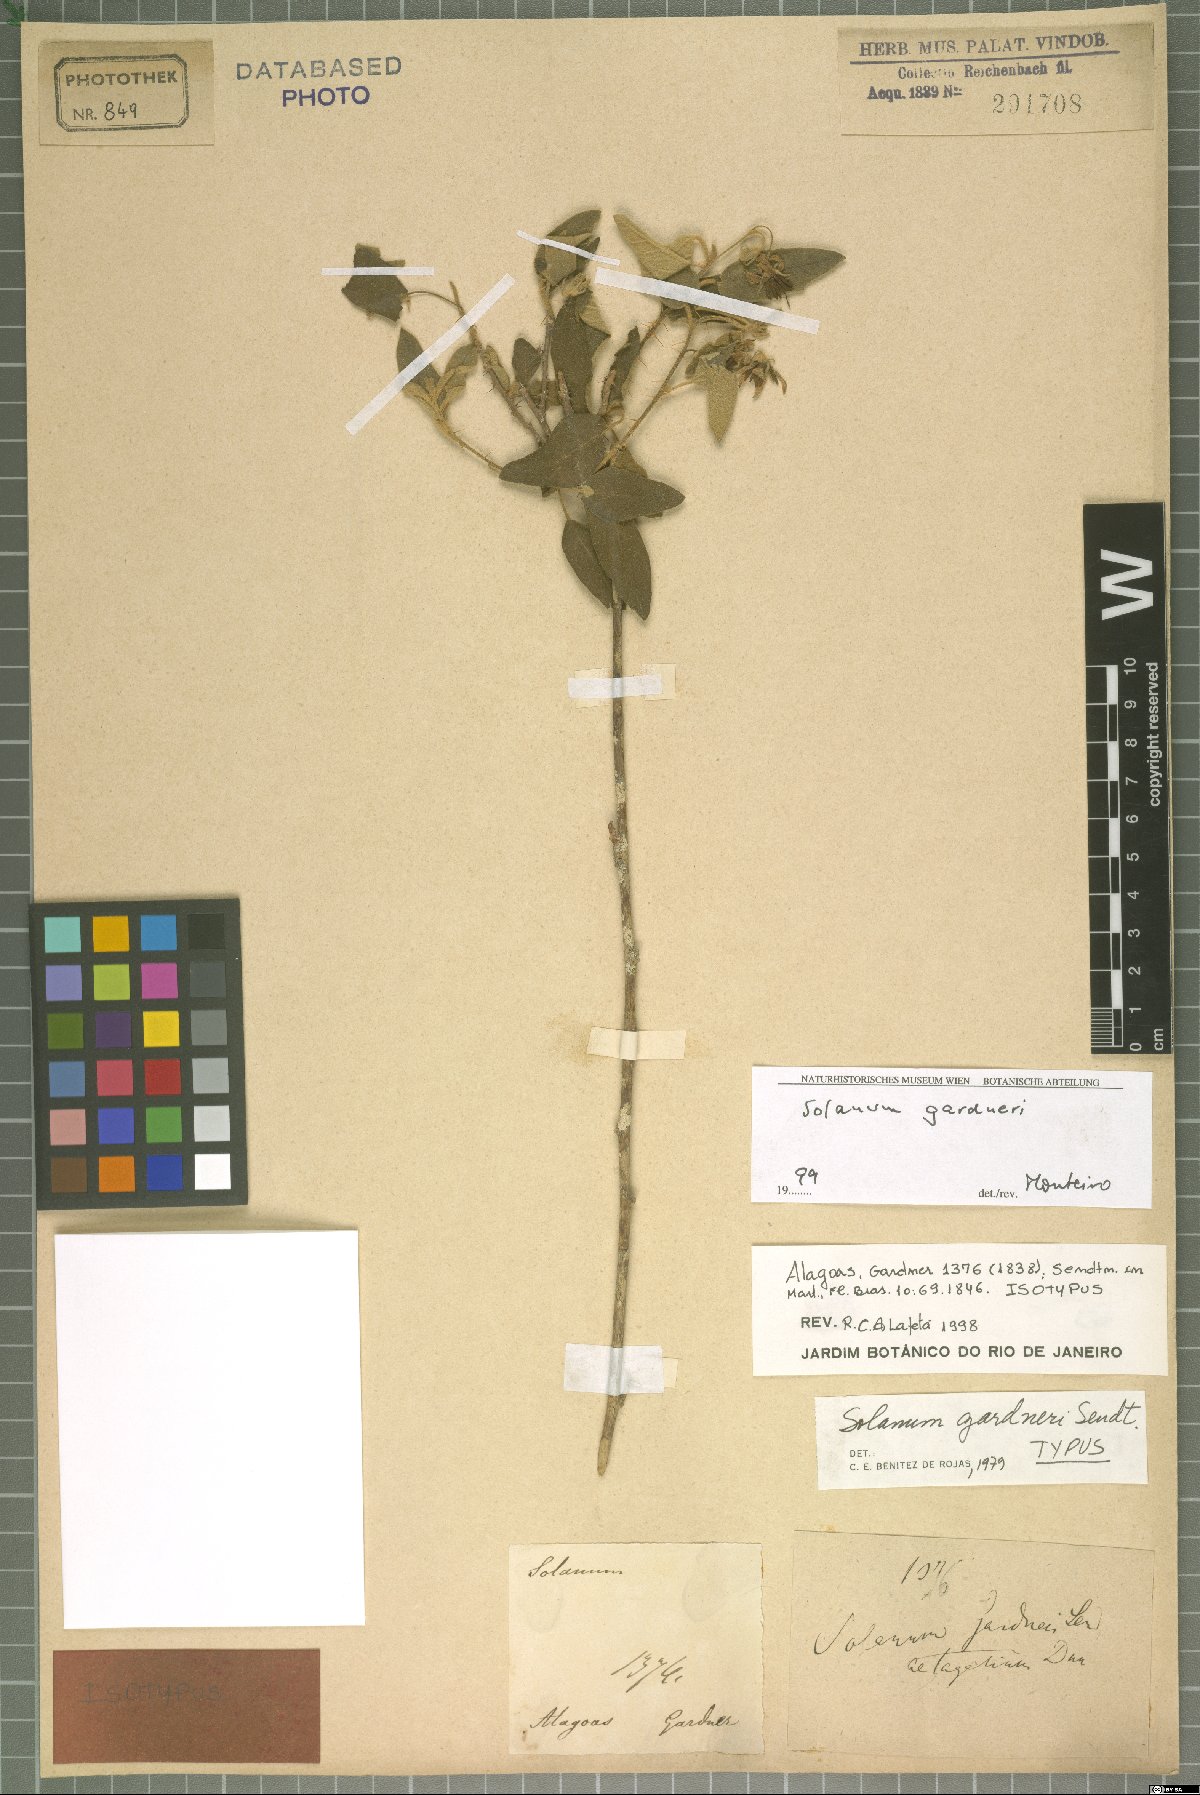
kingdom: Plantae
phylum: Tracheophyta
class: Magnoliopsida
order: Solanales
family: Solanaceae
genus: Solanum
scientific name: Solanum gardneri
